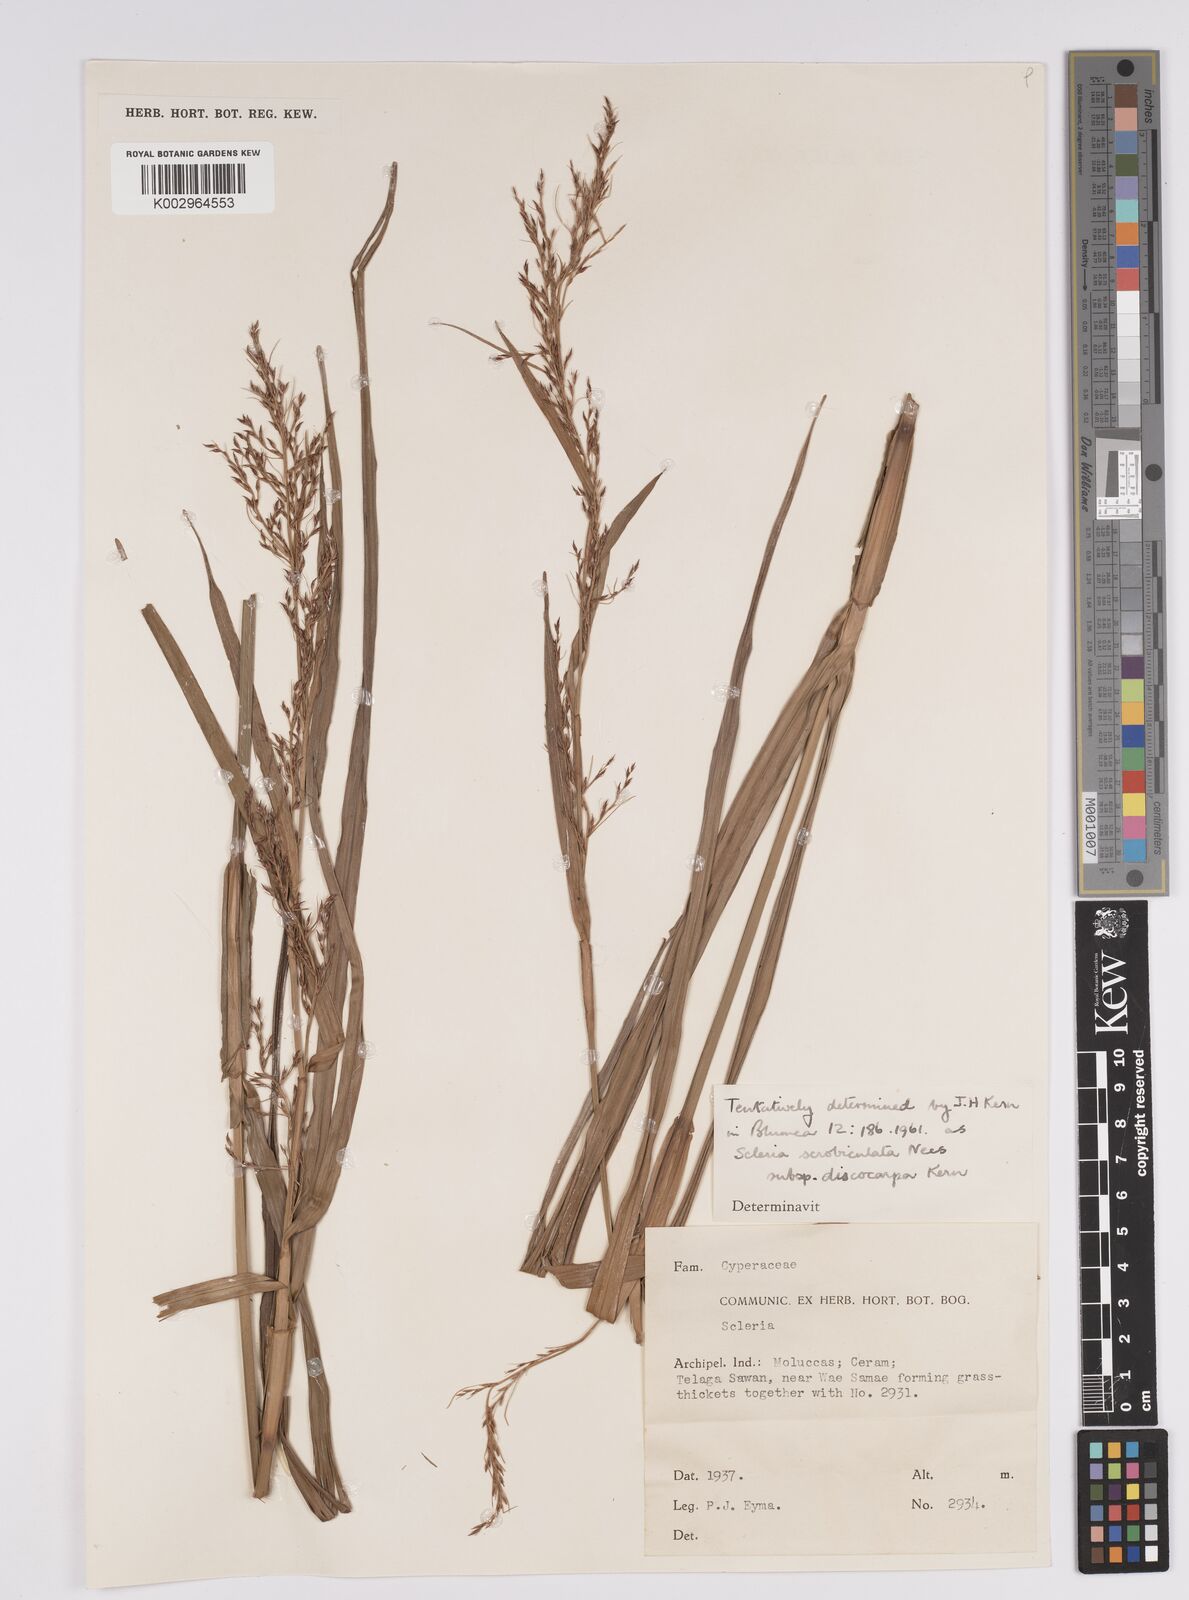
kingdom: Plantae
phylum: Tracheophyta
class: Liliopsida
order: Poales
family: Cyperaceae
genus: Scleria
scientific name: Scleria scrobiculata
